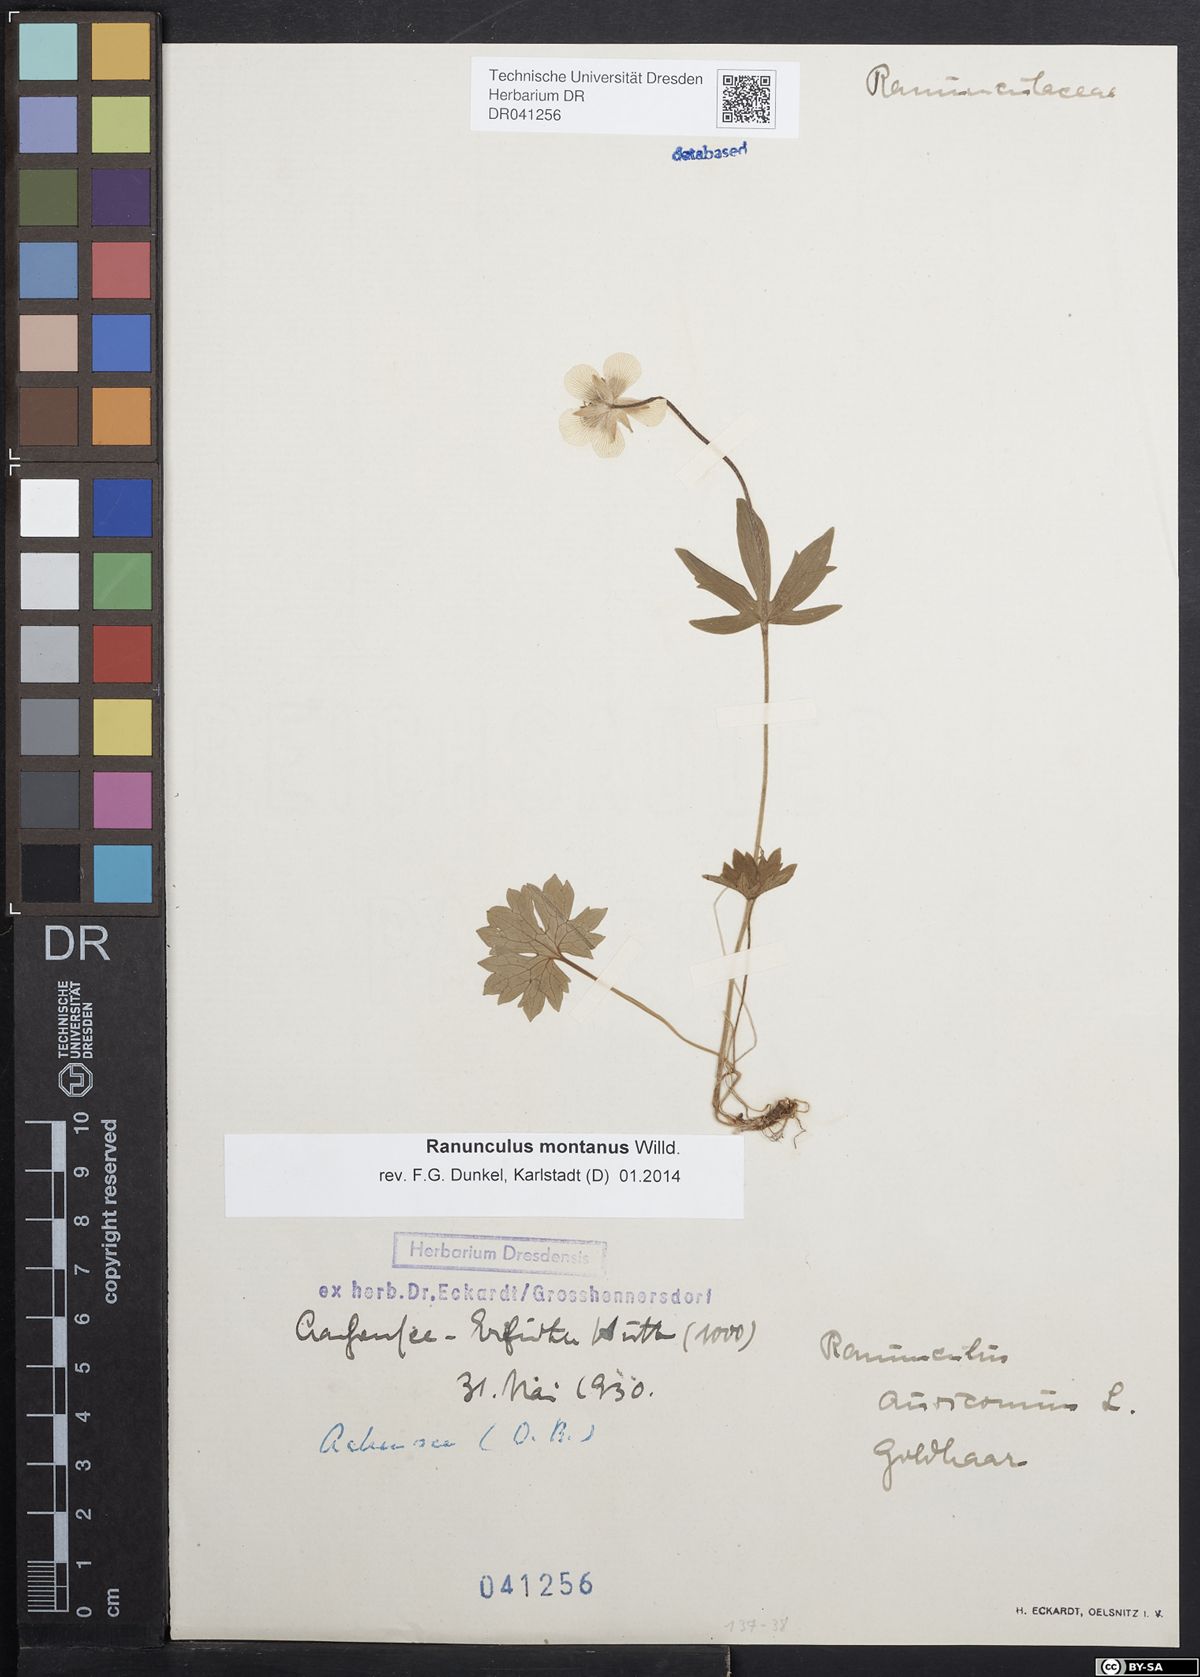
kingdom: Plantae
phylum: Tracheophyta
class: Magnoliopsida
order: Ranunculales
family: Ranunculaceae
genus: Ranunculus
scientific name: Ranunculus montanus
